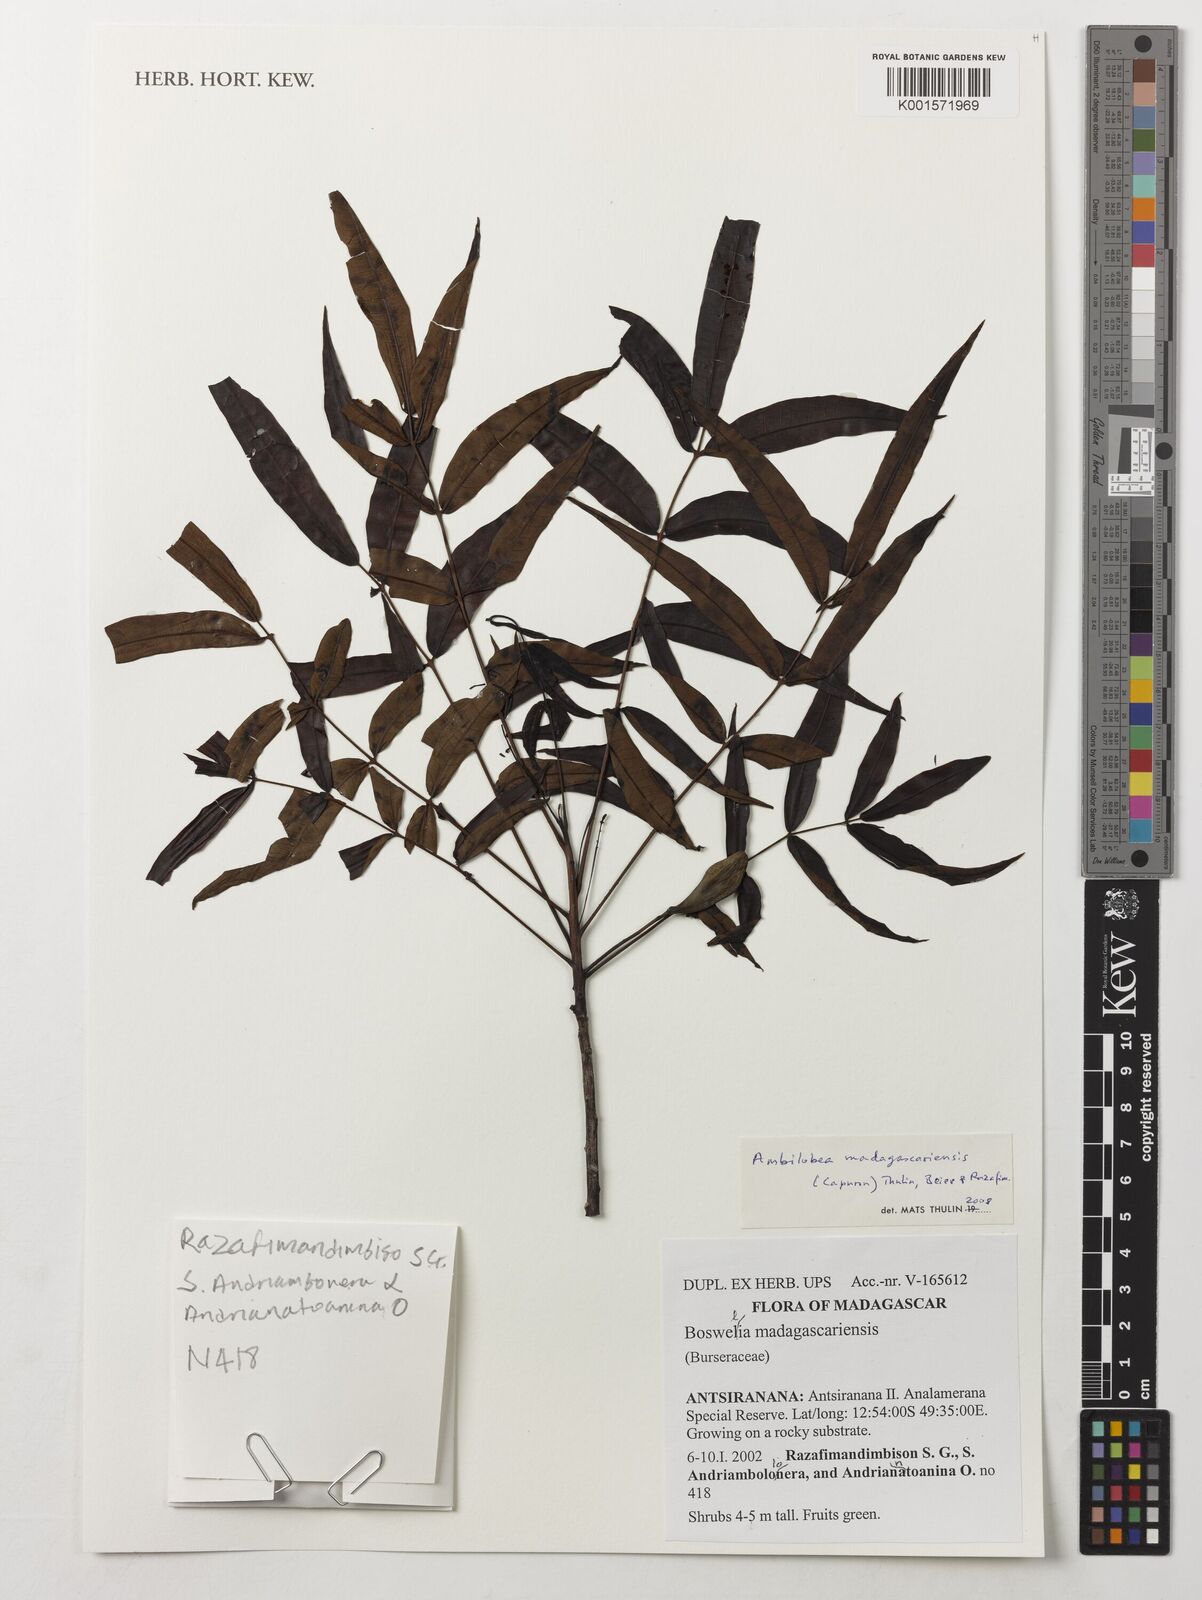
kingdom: Plantae
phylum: Tracheophyta
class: Magnoliopsida
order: Sapindales
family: Burseraceae
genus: Ambilobea
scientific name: Ambilobea madagascariensis
